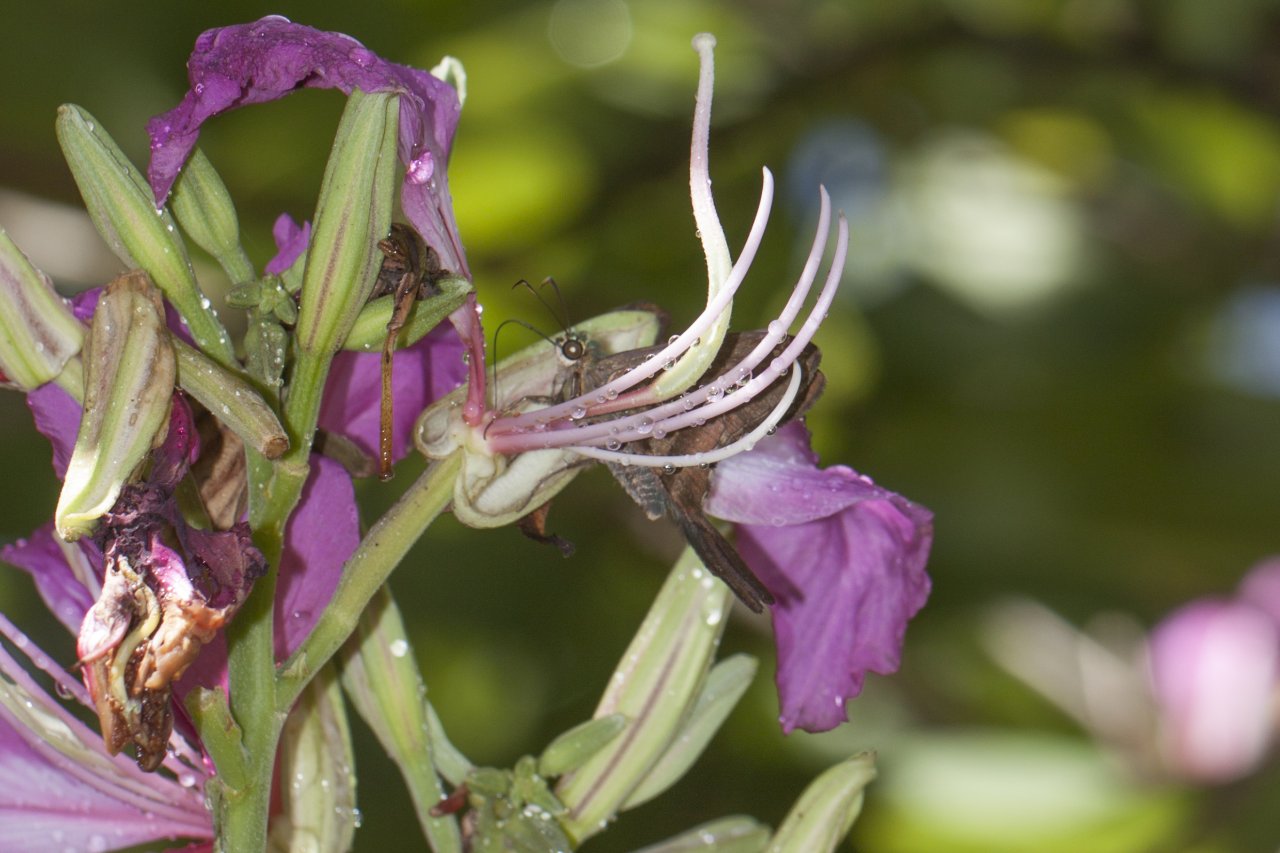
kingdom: Animalia
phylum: Arthropoda
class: Insecta
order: Lepidoptera
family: Hesperiidae
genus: Urbanus
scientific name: Urbanus proteus
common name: Long-tailed Skipper
